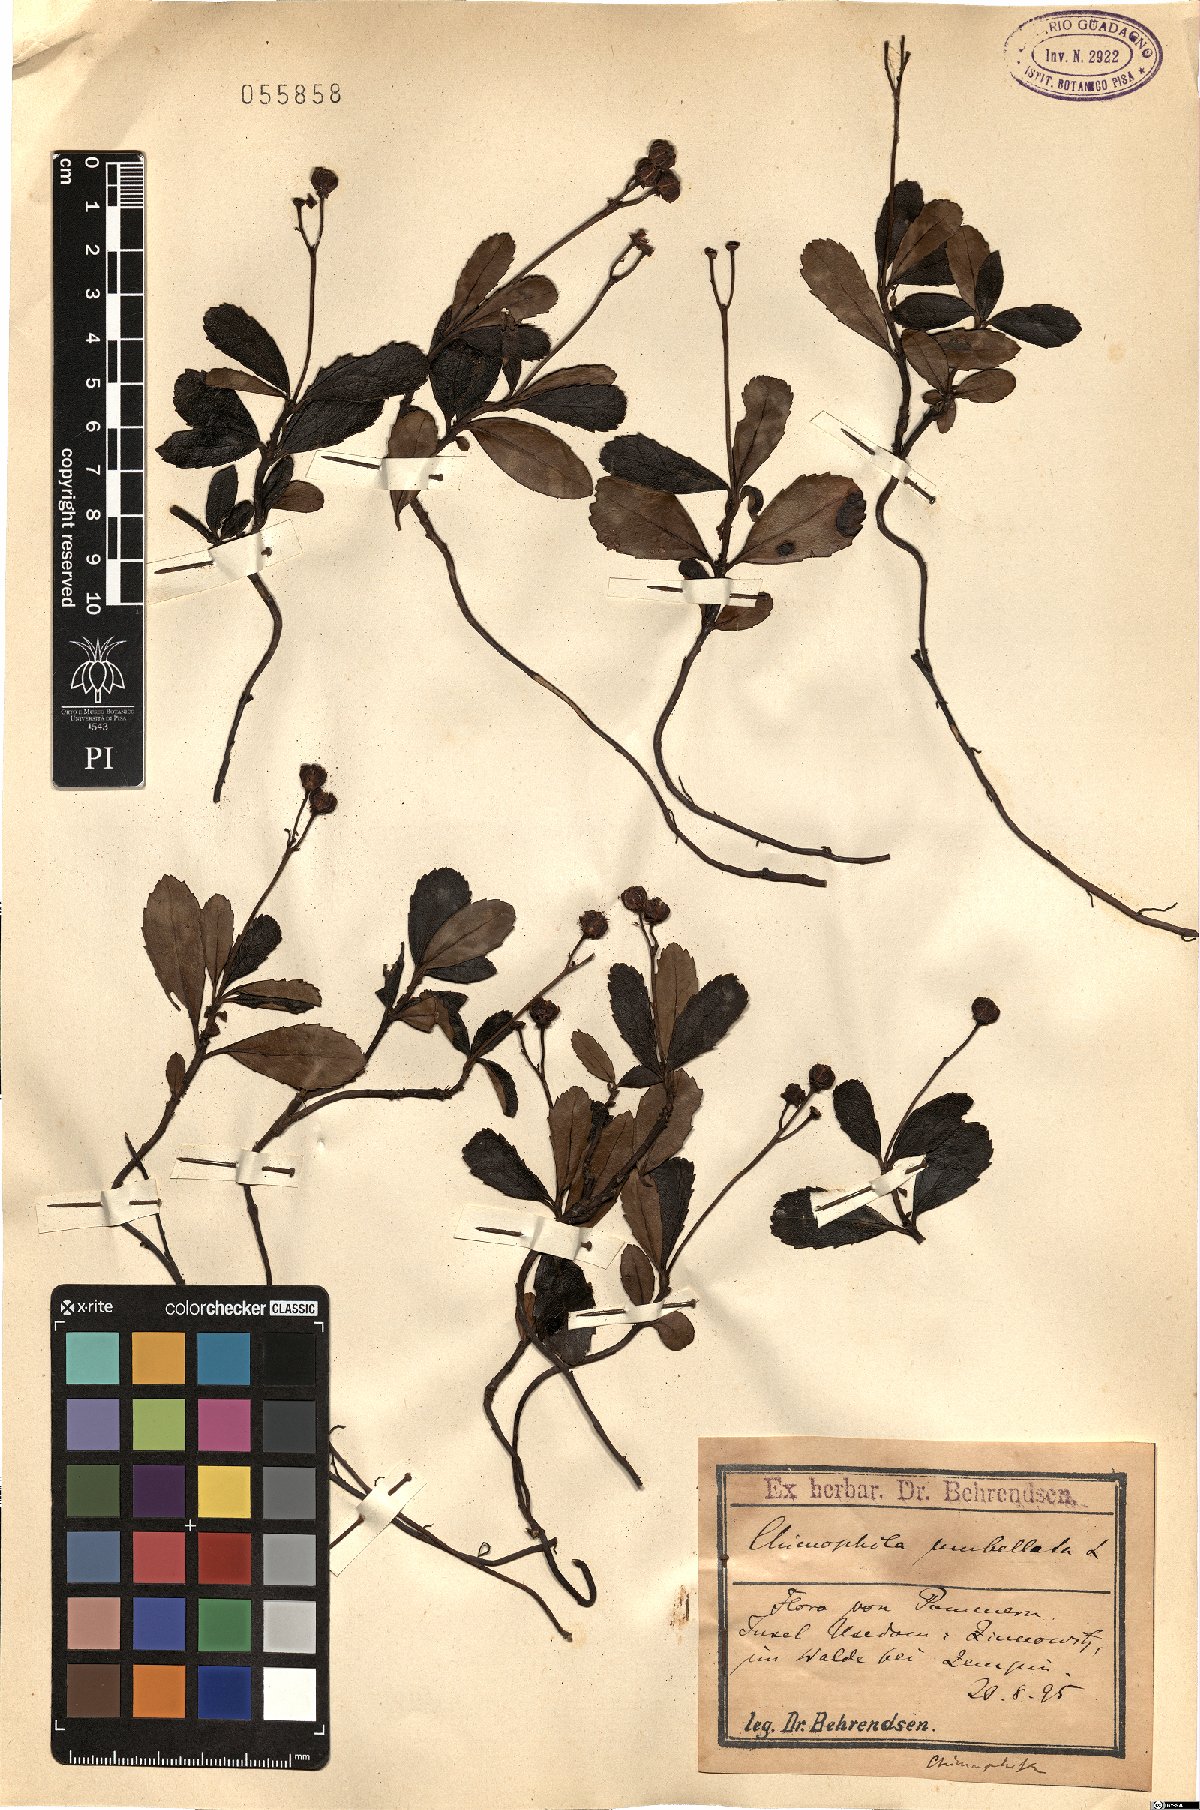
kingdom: Plantae
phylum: Tracheophyta
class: Magnoliopsida
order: Ericales
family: Ericaceae
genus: Chimaphila
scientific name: Chimaphila umbellata
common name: Pipsissewa
